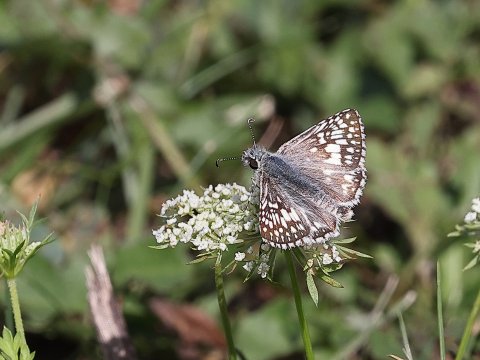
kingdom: Animalia
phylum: Arthropoda
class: Insecta
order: Lepidoptera
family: Hesperiidae
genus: Pyrgus
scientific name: Pyrgus communis
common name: Common Checkered-Skipper
